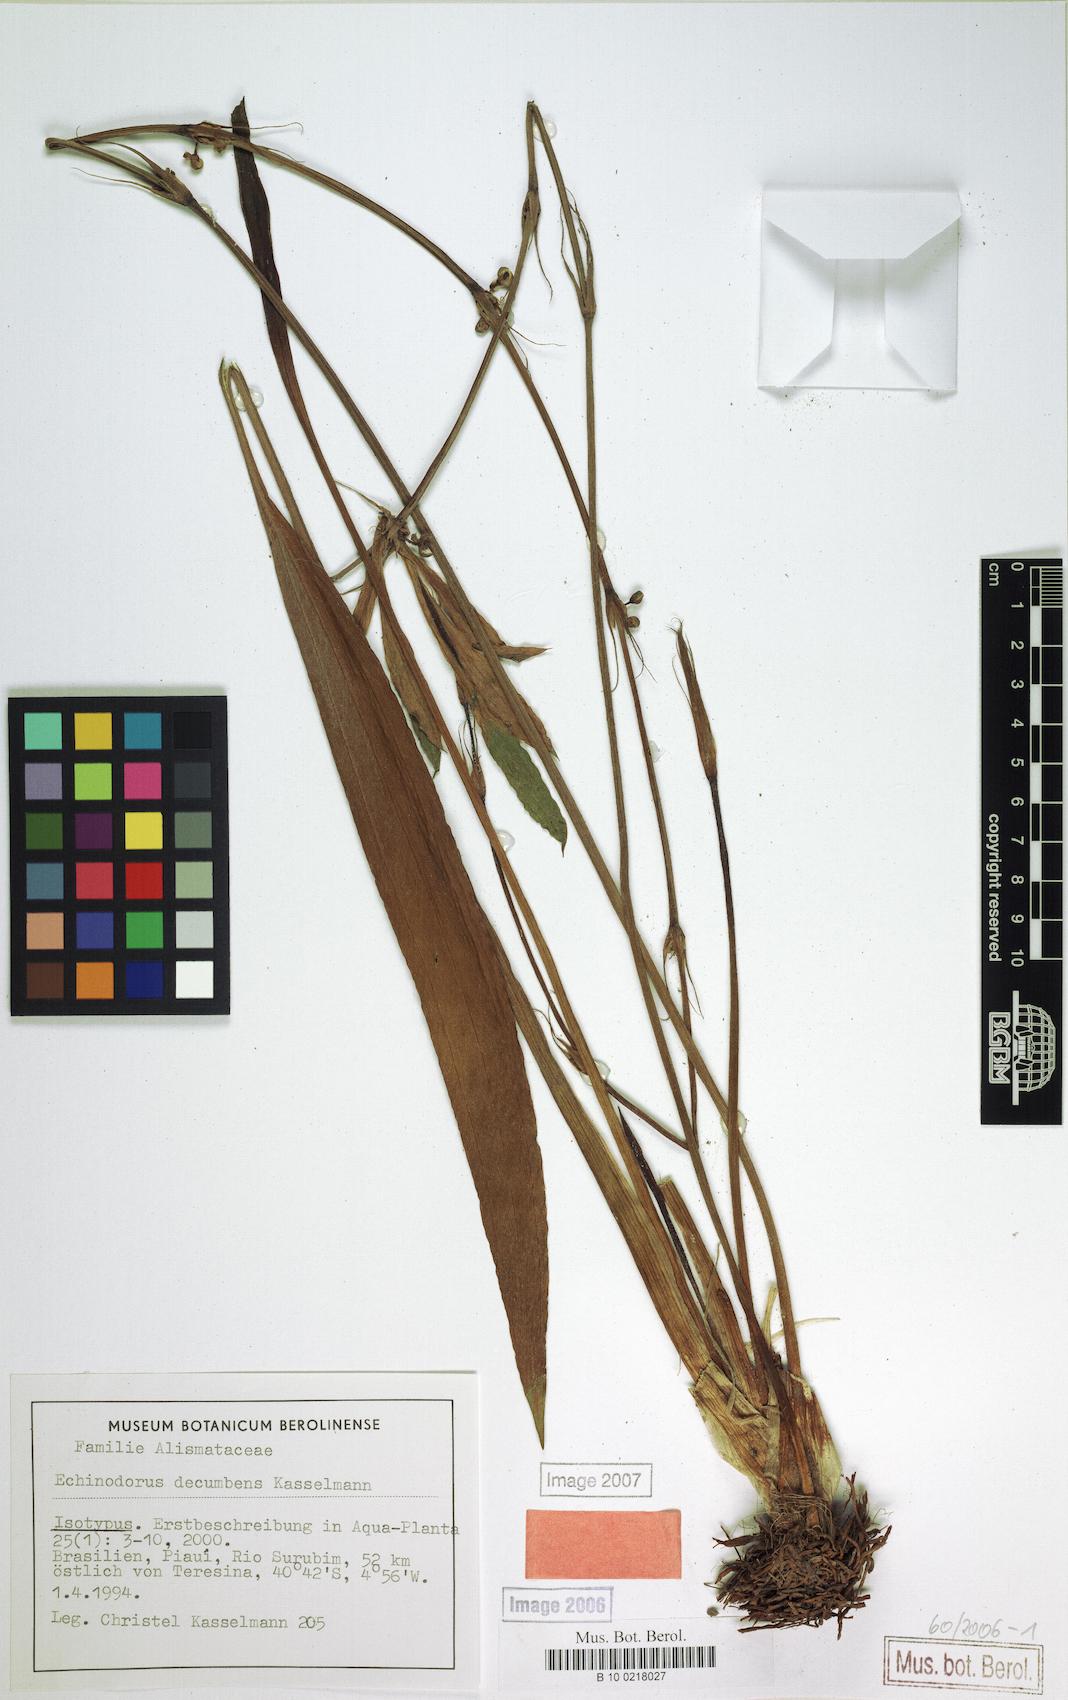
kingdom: Plantae
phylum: Tracheophyta
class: Liliopsida
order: Alismatales
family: Alismataceae
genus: Aquarius
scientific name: Aquarius decumbens
